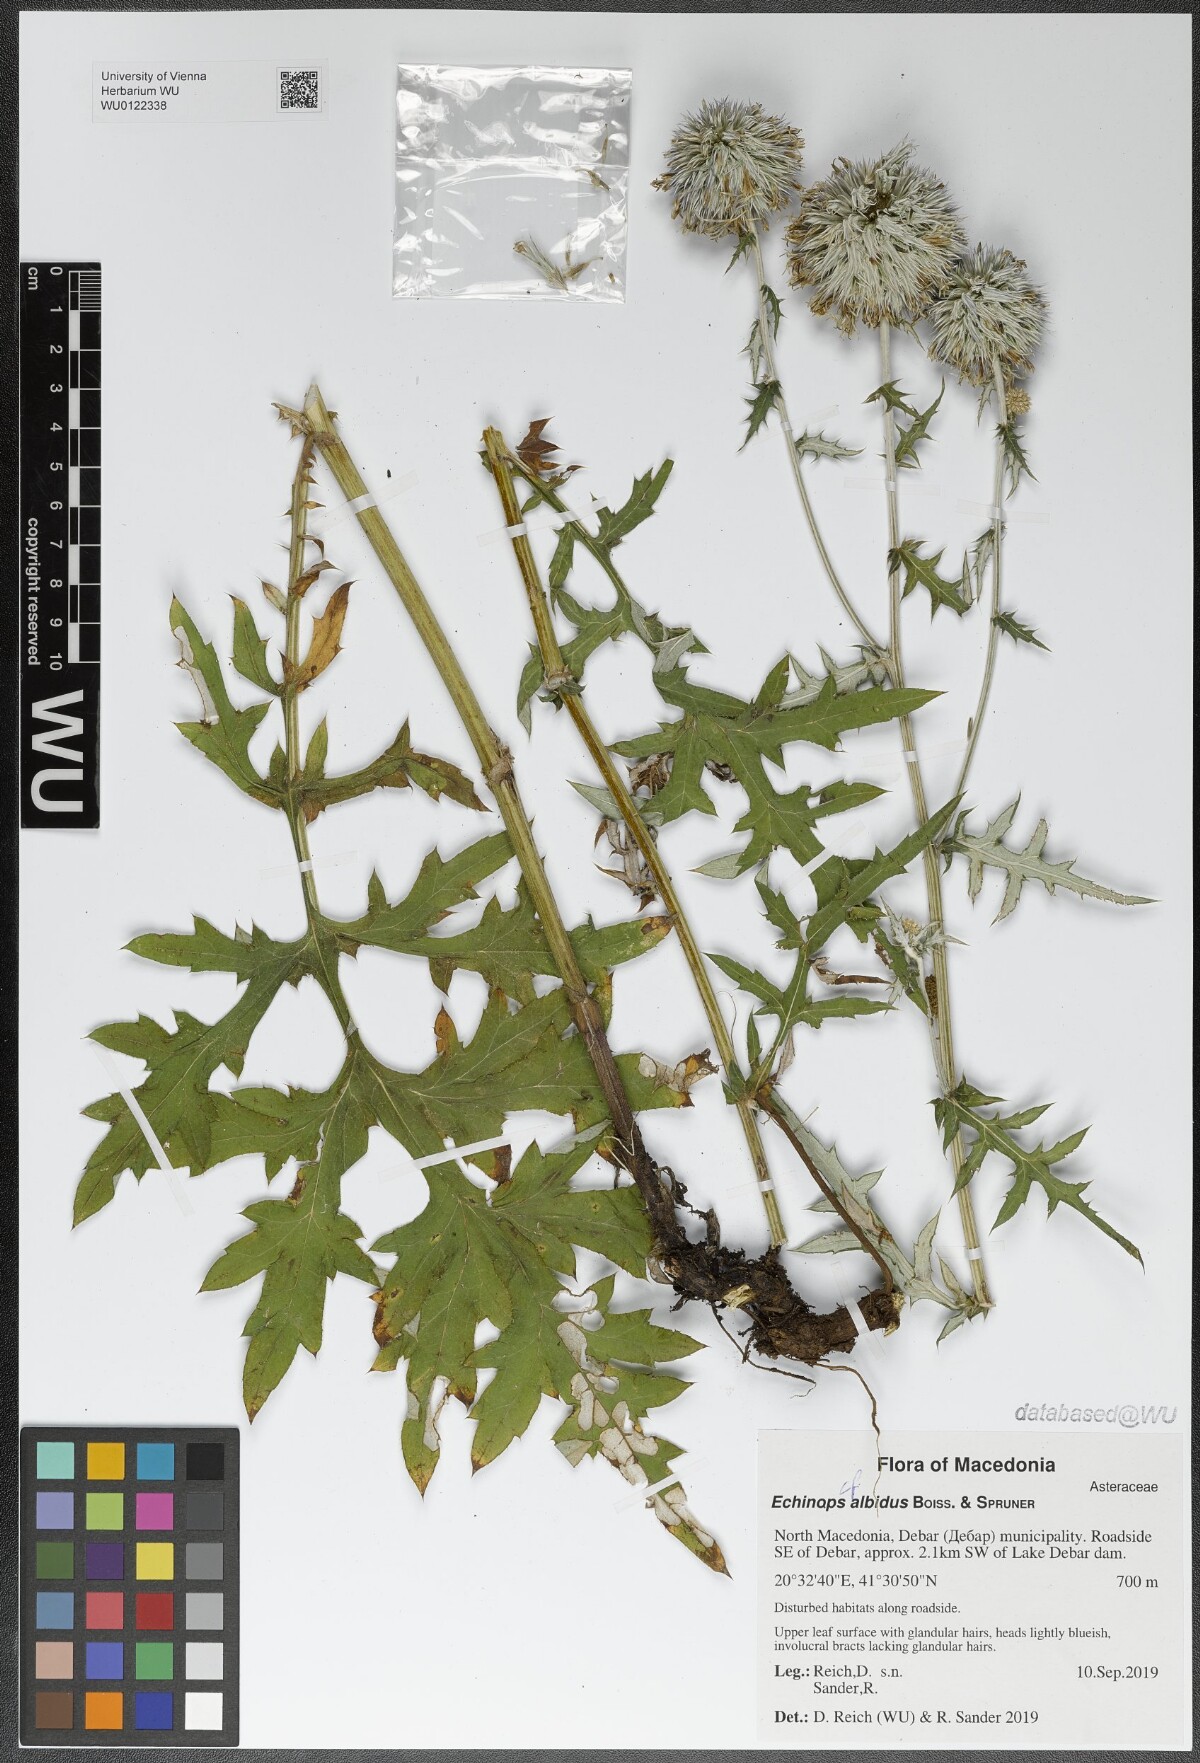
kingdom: Plantae
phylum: Tracheophyta
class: Magnoliopsida
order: Asterales
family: Asteraceae
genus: Echinops
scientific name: Echinops sphaerocephalus
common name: Glandular globe-thistle
